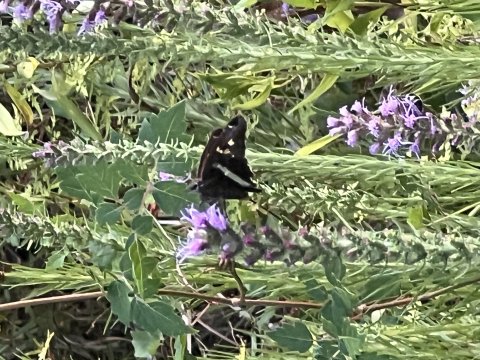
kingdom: Animalia
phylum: Arthropoda
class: Insecta
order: Lepidoptera
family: Hesperiidae
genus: Chioides
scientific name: Chioides catillus
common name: White-striped Longtail
